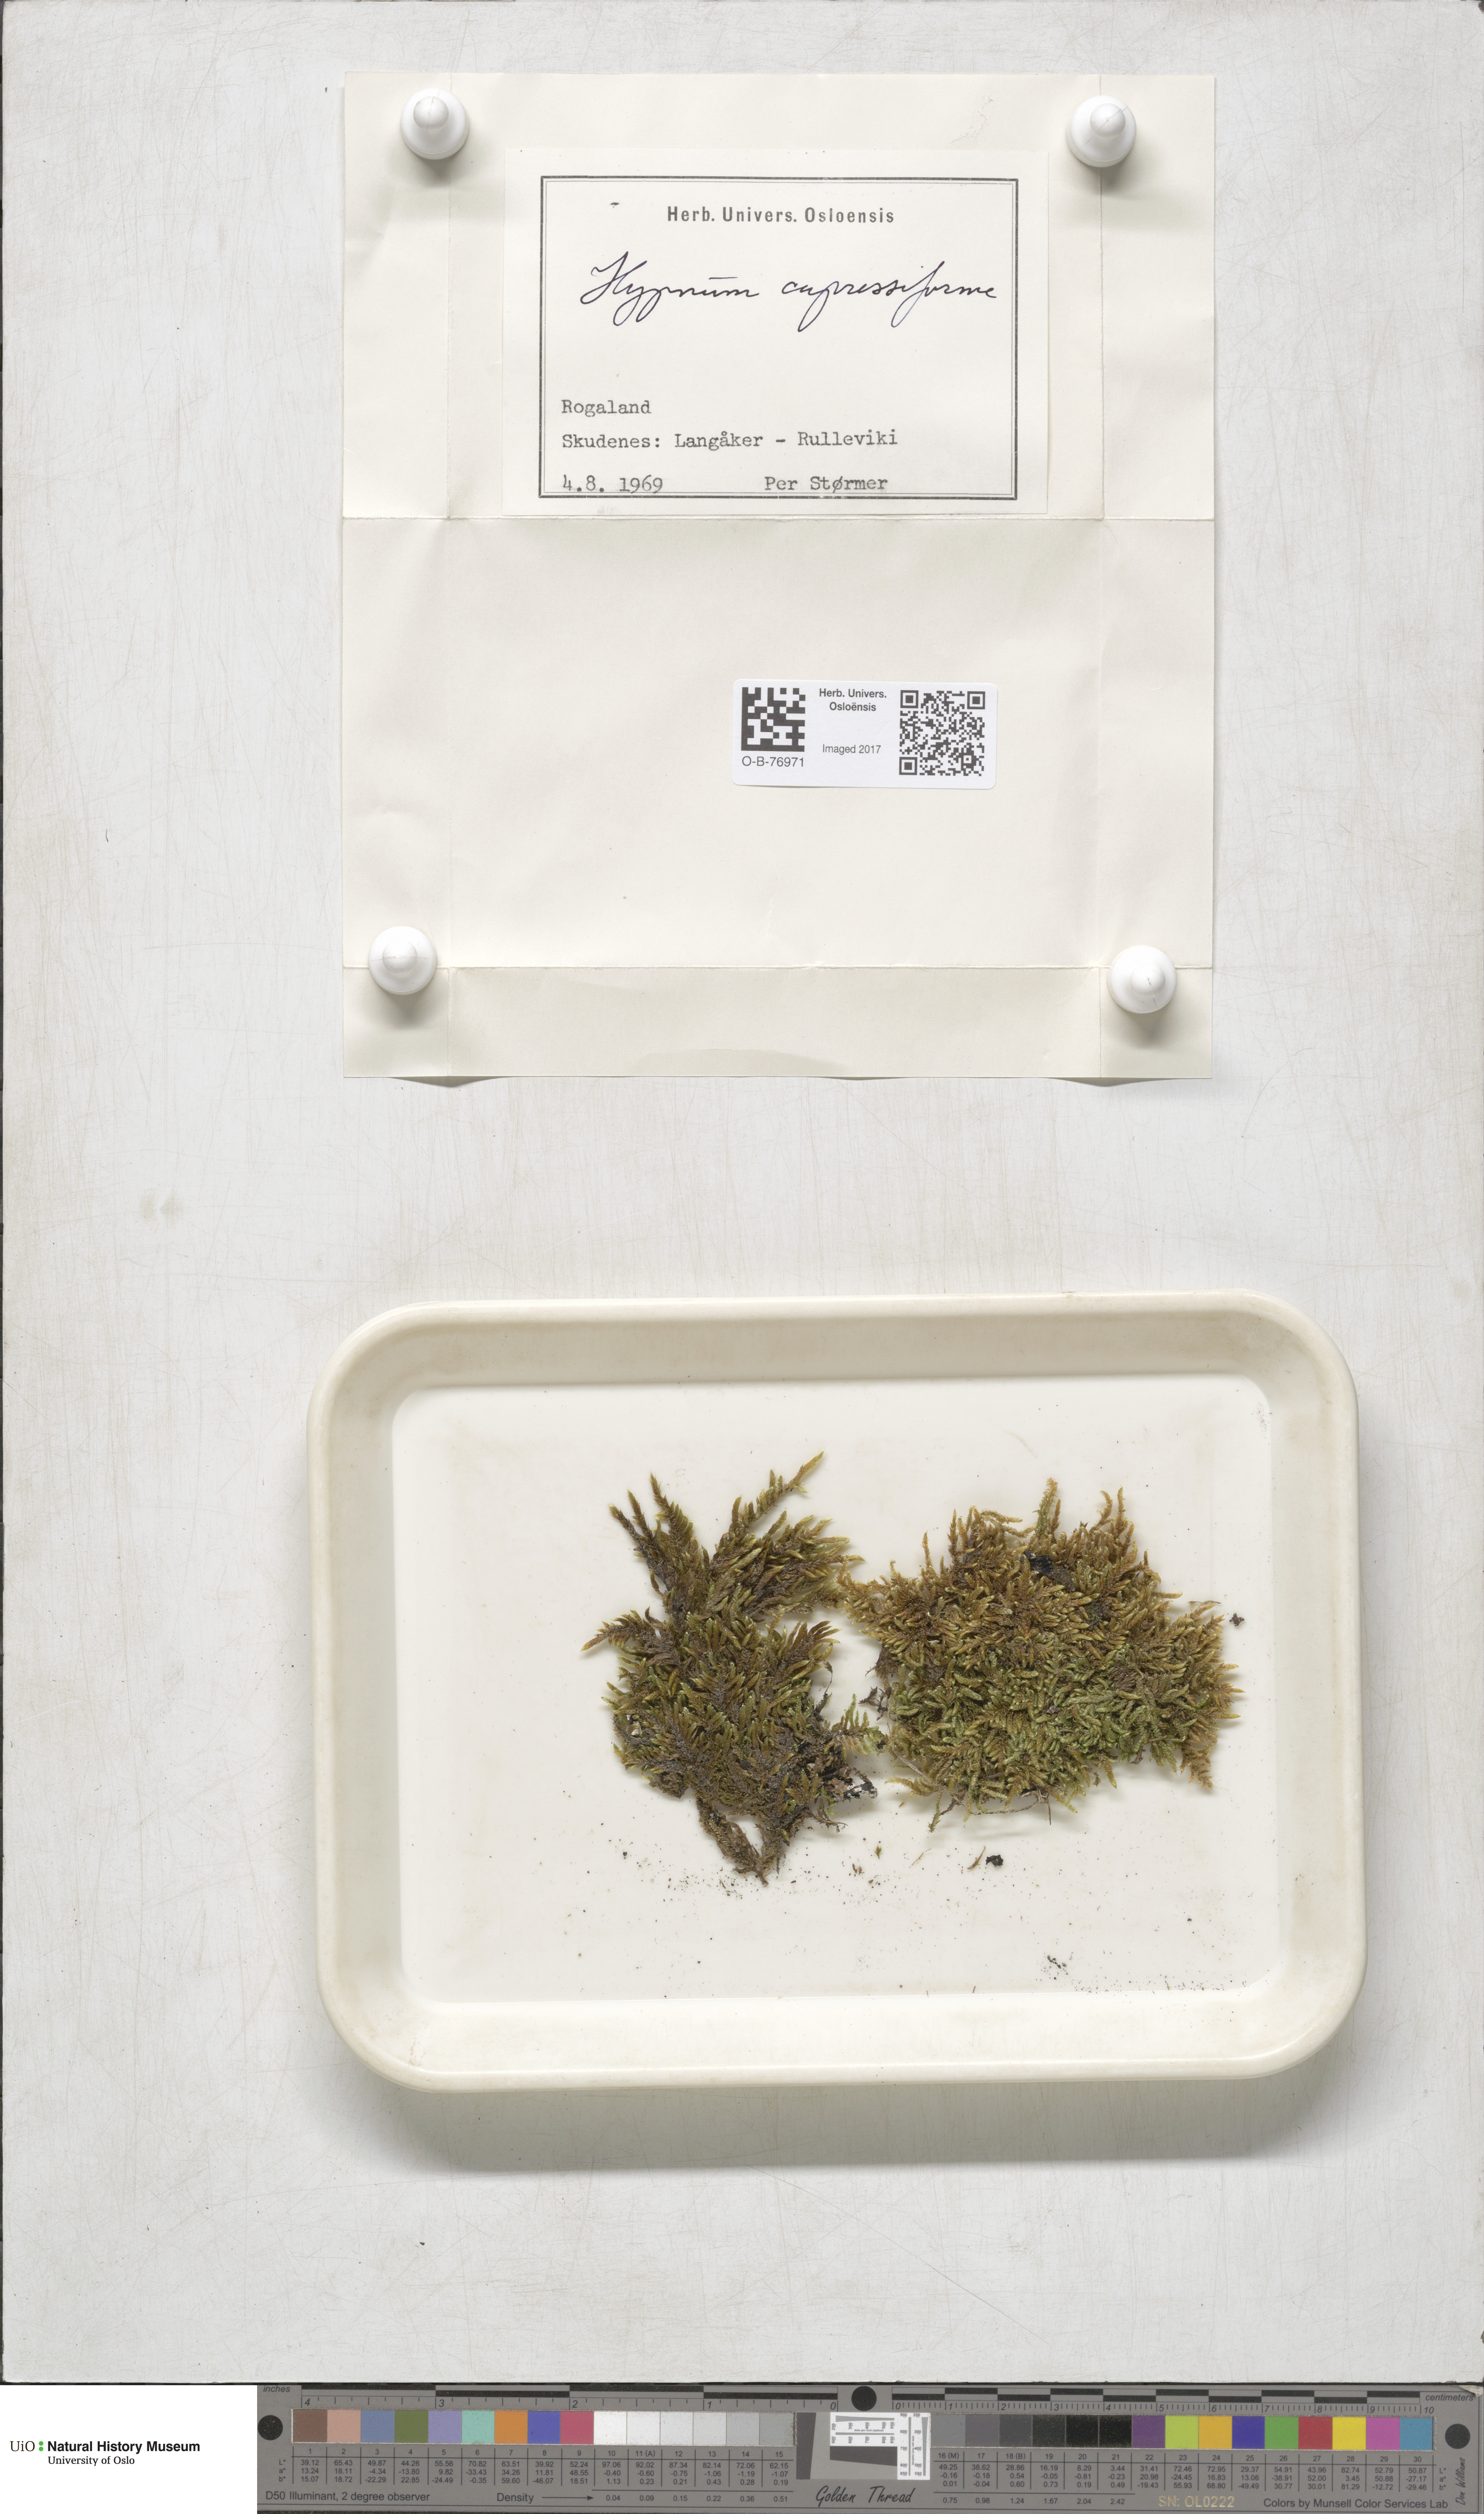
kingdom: Plantae
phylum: Bryophyta
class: Bryopsida
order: Hypnales
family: Hypnaceae
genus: Hypnum
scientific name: Hypnum cupressiforme
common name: Cypress-leaved plait-moss
